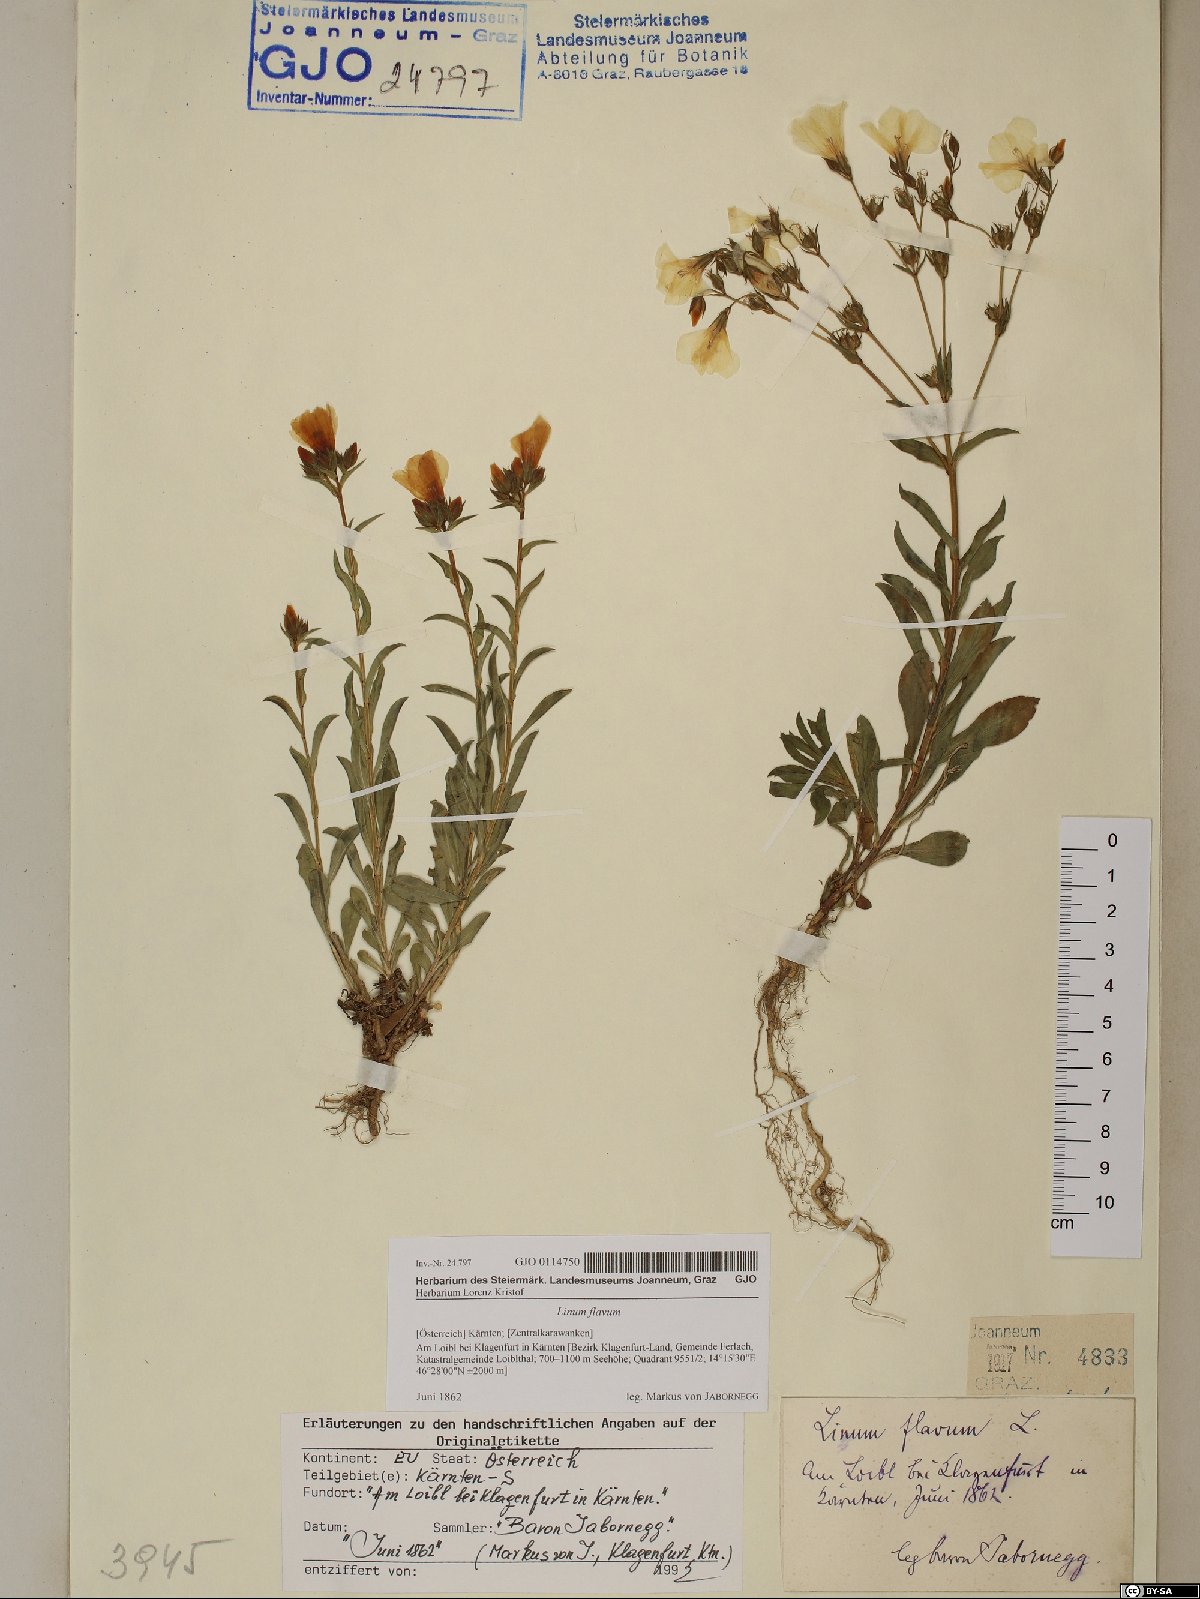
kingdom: Plantae
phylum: Tracheophyta
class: Magnoliopsida
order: Malpighiales
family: Linaceae
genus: Linum
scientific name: Linum flavum
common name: Yellow flax
